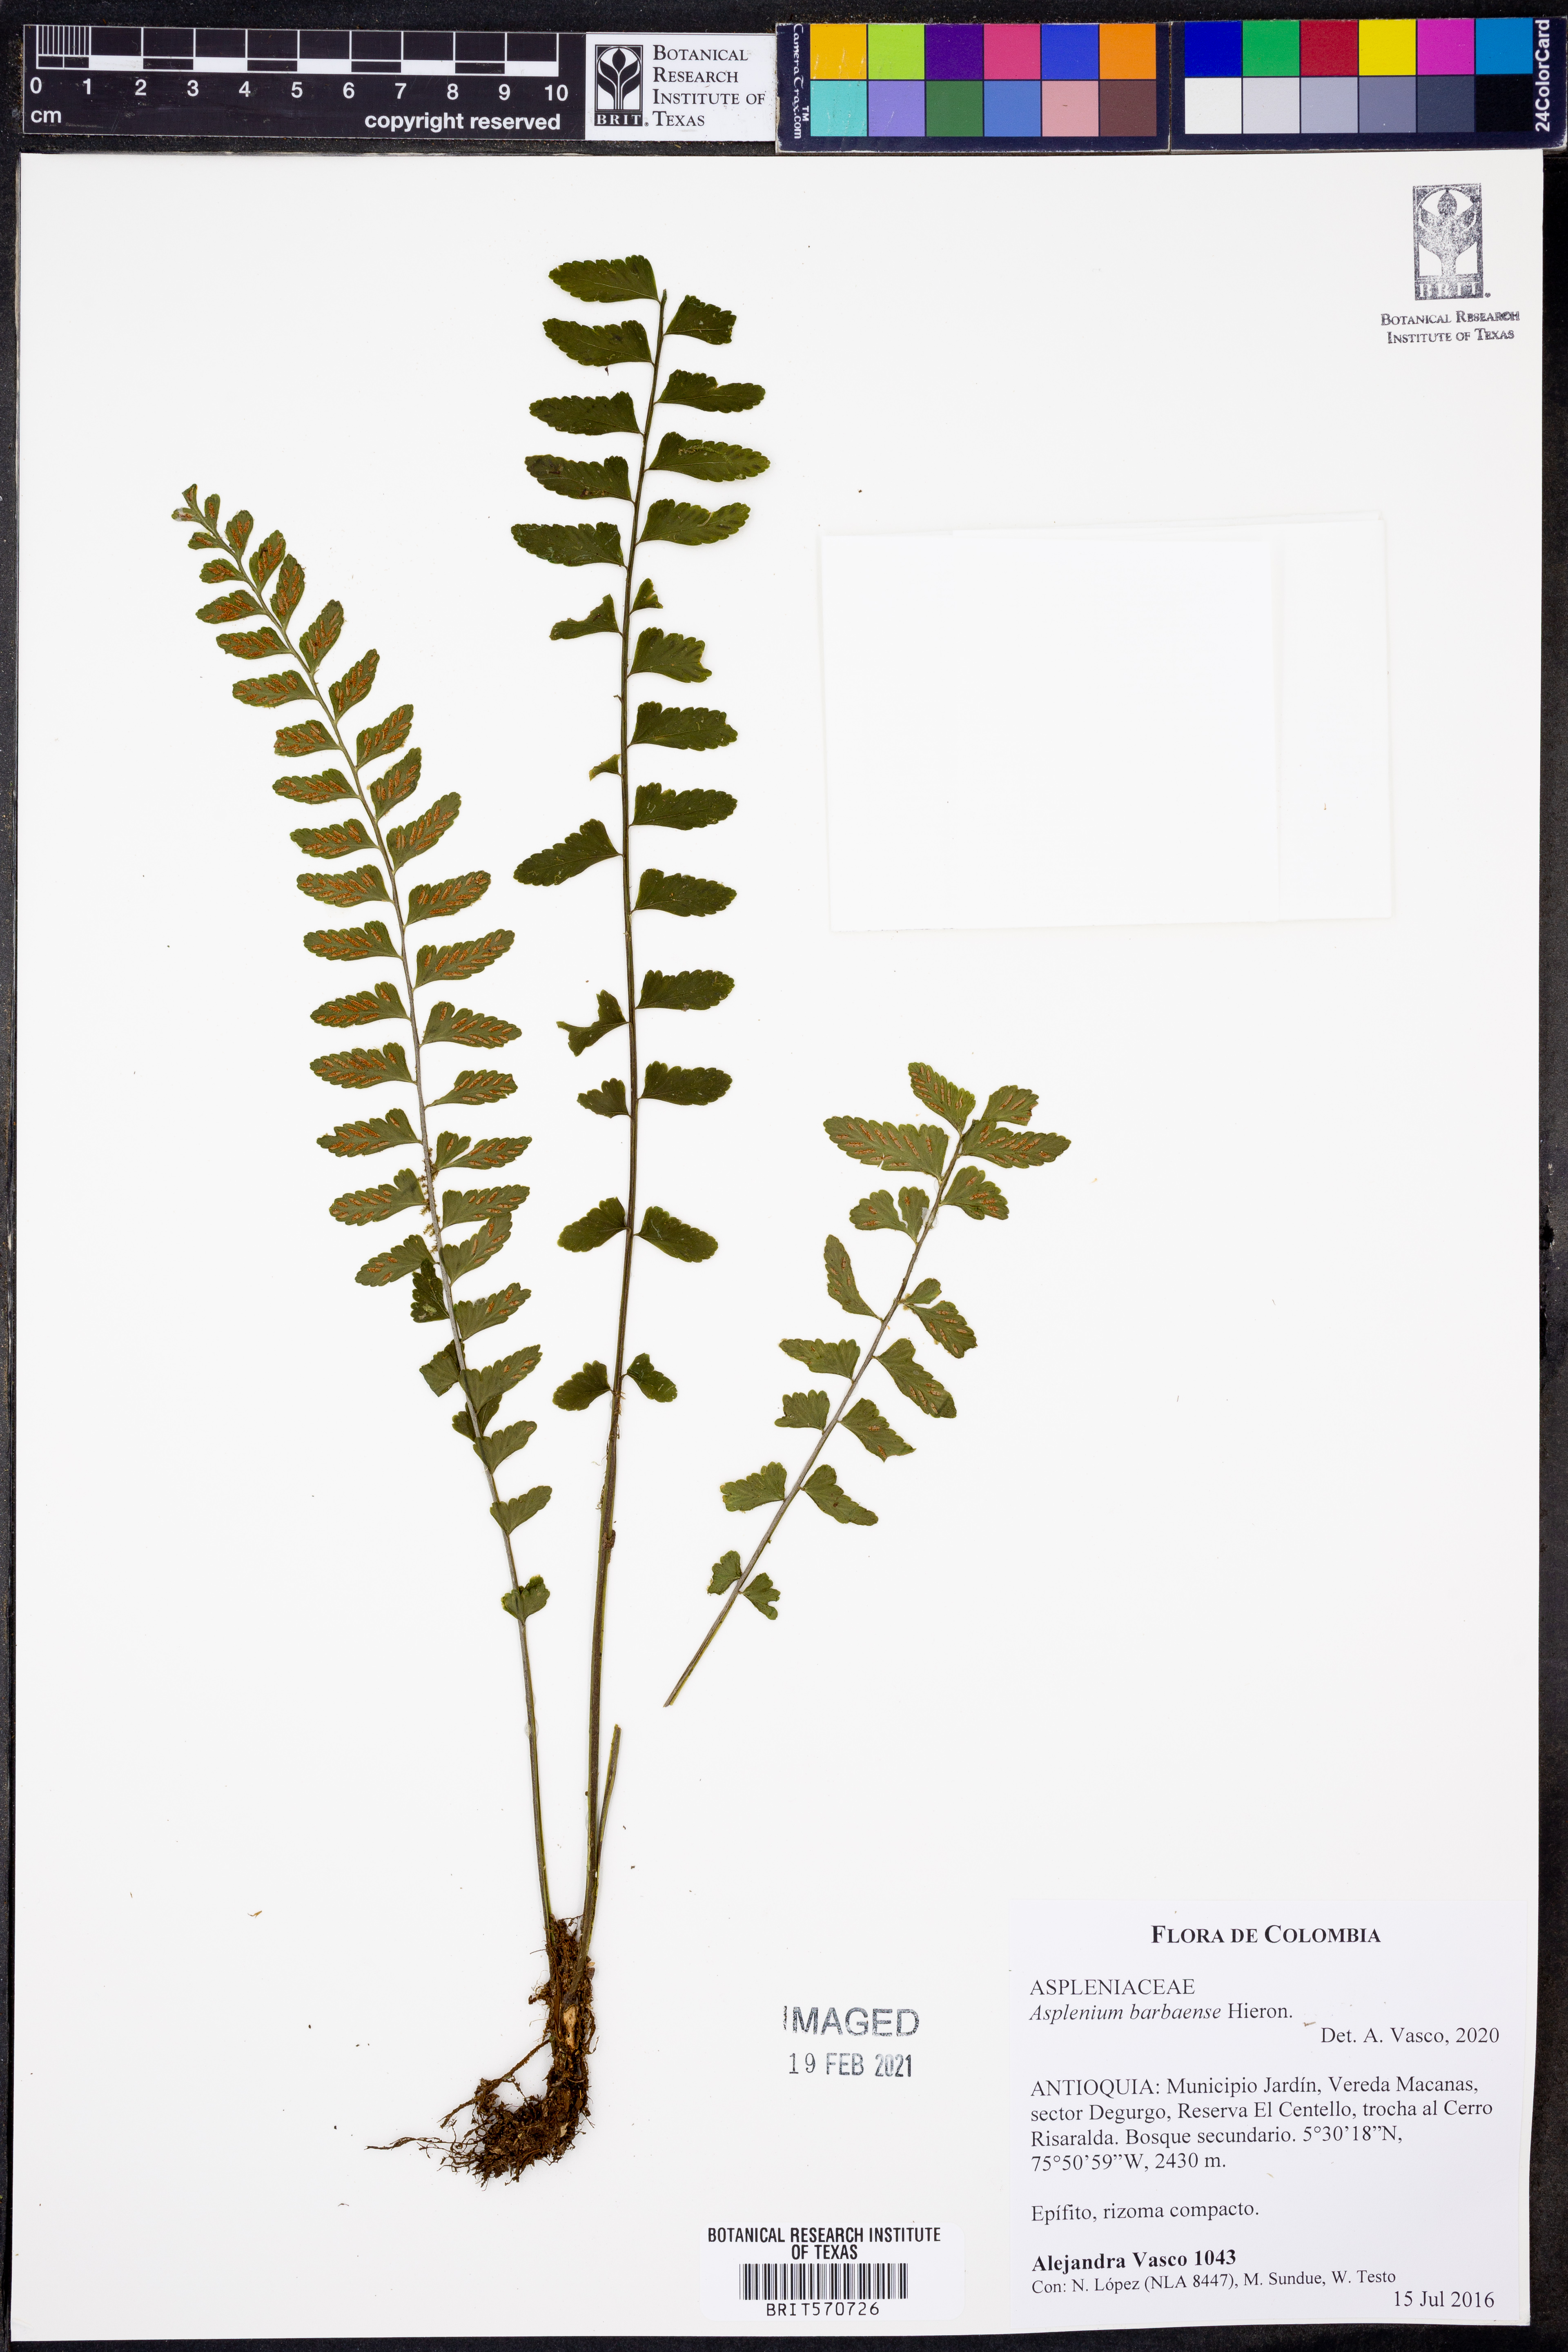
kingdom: Plantae
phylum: Tracheophyta
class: Polypodiopsida
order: Polypodiales
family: Aspleniaceae
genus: Asplenium
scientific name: Asplenium barbaense
